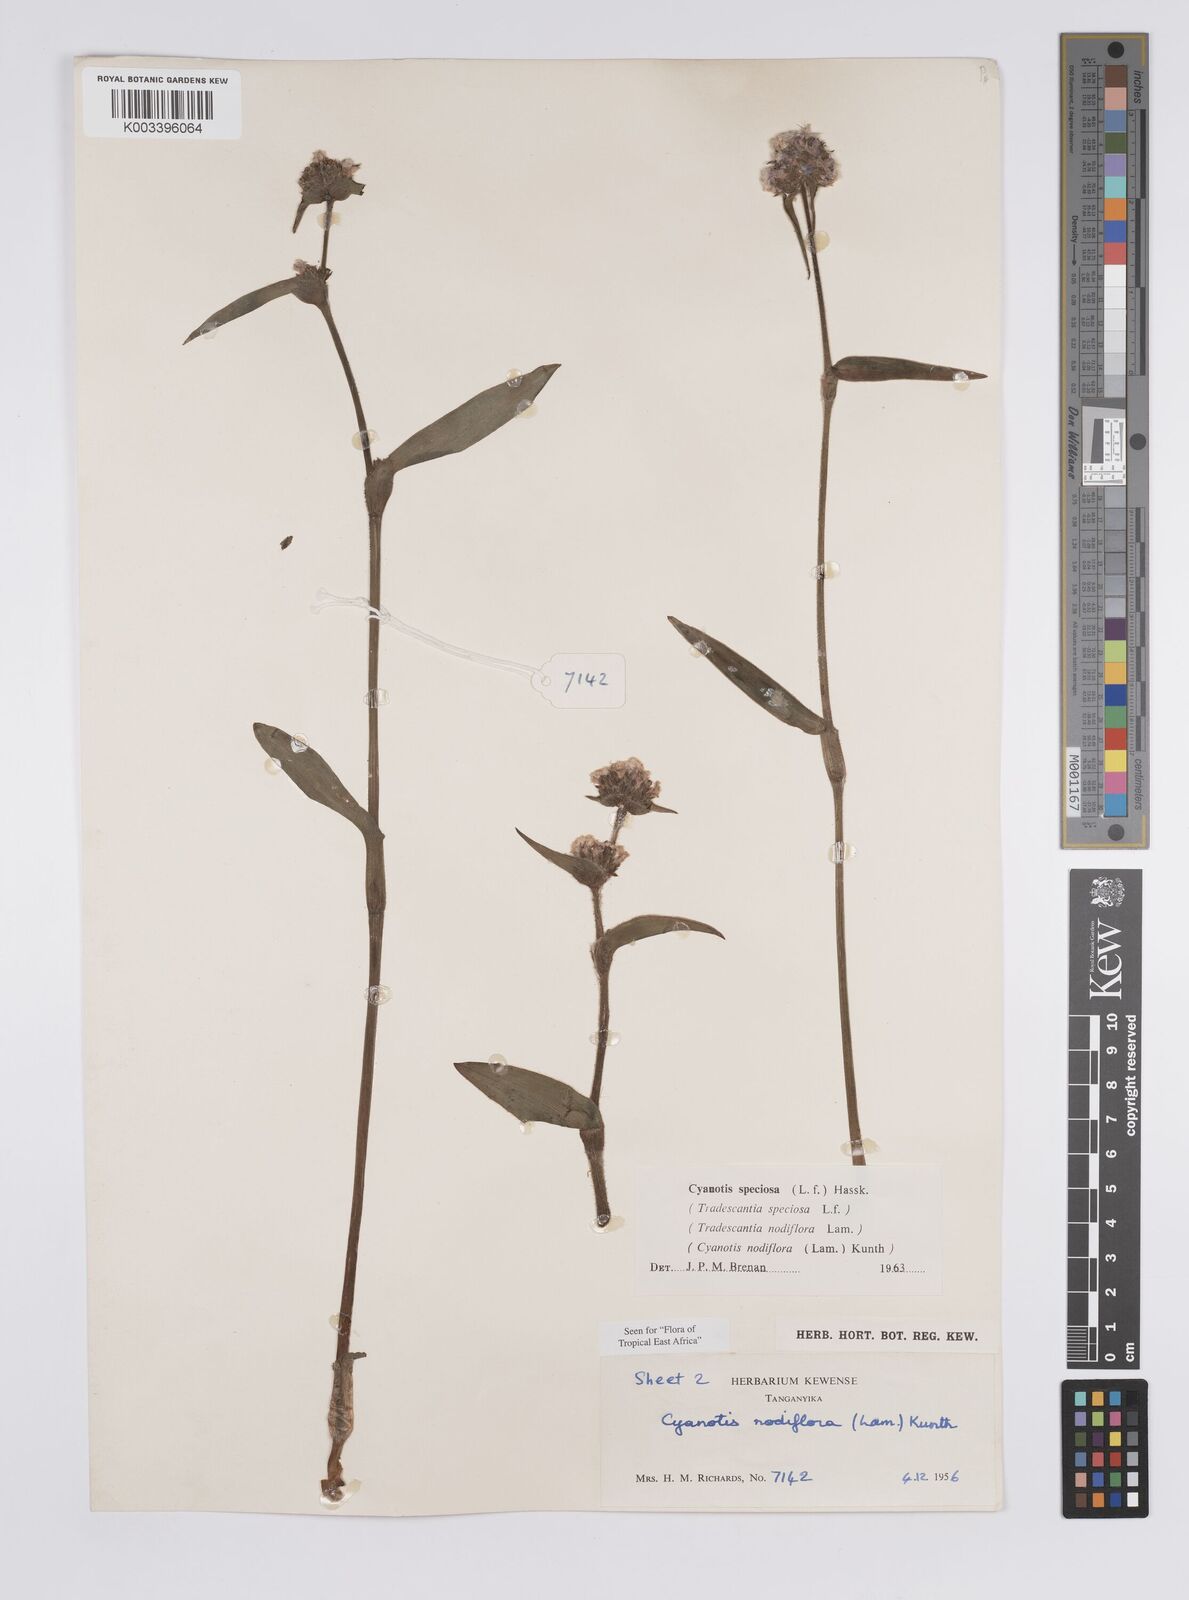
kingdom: Plantae
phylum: Tracheophyta
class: Liliopsida
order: Commelinales
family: Commelinaceae
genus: Cyanotis
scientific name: Cyanotis speciosa
